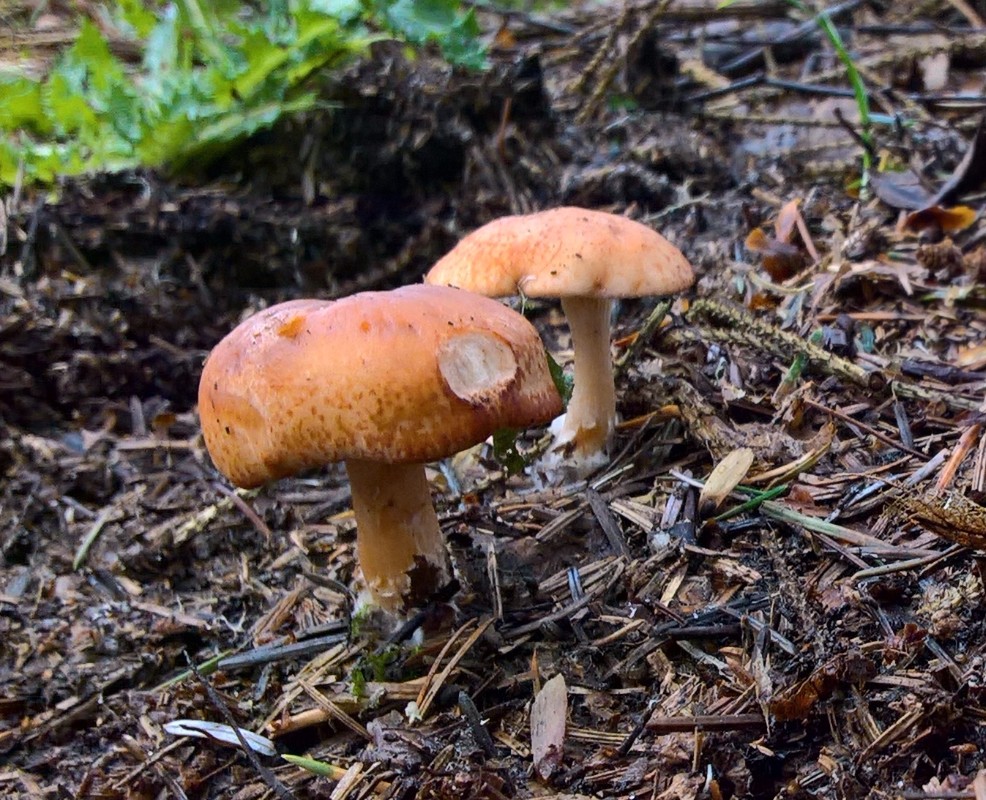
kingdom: Fungi
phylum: Basidiomycota
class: Agaricomycetes
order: Agaricales
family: Tricholomataceae
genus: Paralepista
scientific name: Paralepista flaccida
